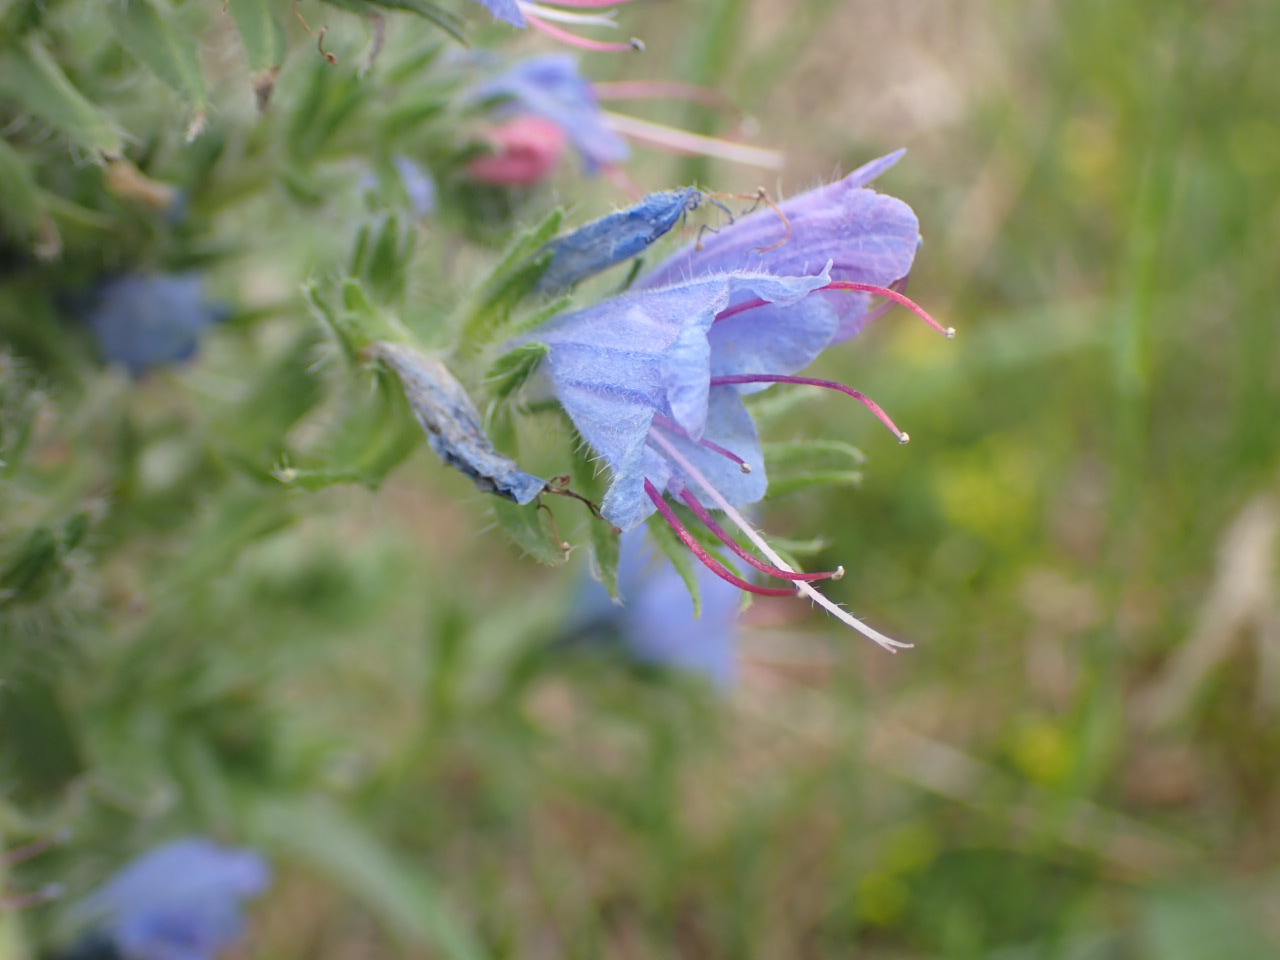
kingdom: Plantae
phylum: Tracheophyta
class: Magnoliopsida
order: Boraginales
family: Boraginaceae
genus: Echium
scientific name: Echium vulgare
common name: Slangehoved
